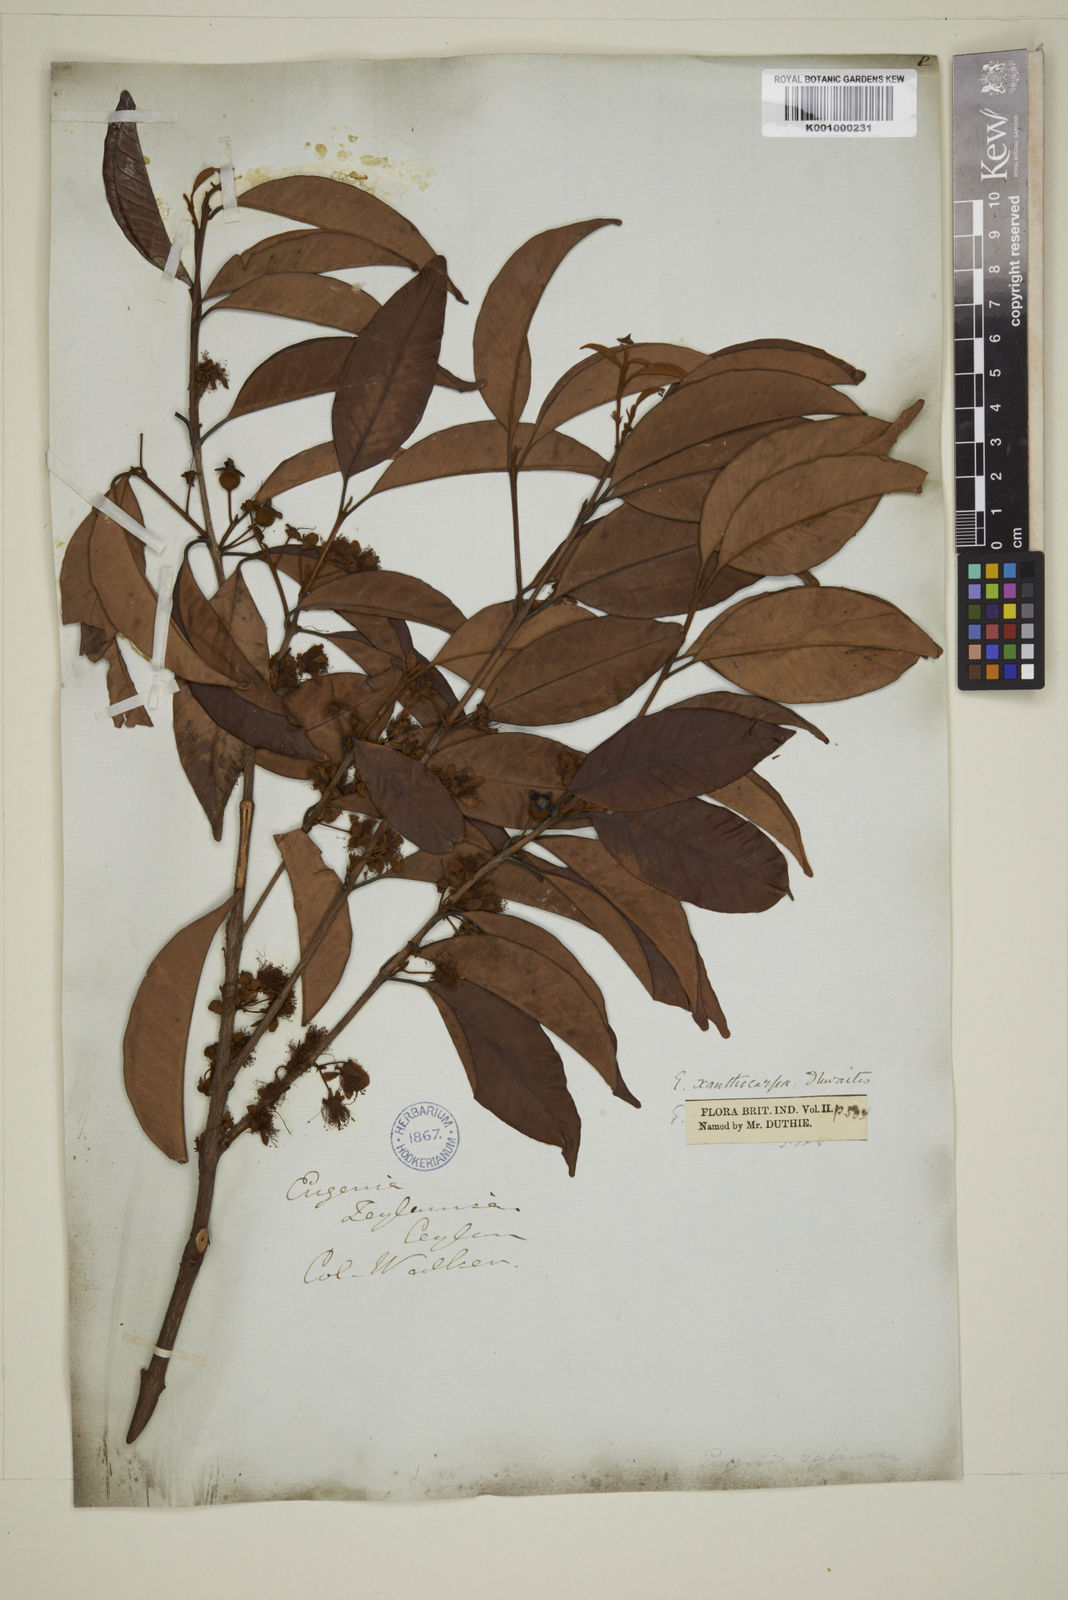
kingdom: Plantae
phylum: Tracheophyta
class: Magnoliopsida
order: Myrtales
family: Myrtaceae
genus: Campomanesia
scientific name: Campomanesia xanthocarpa
